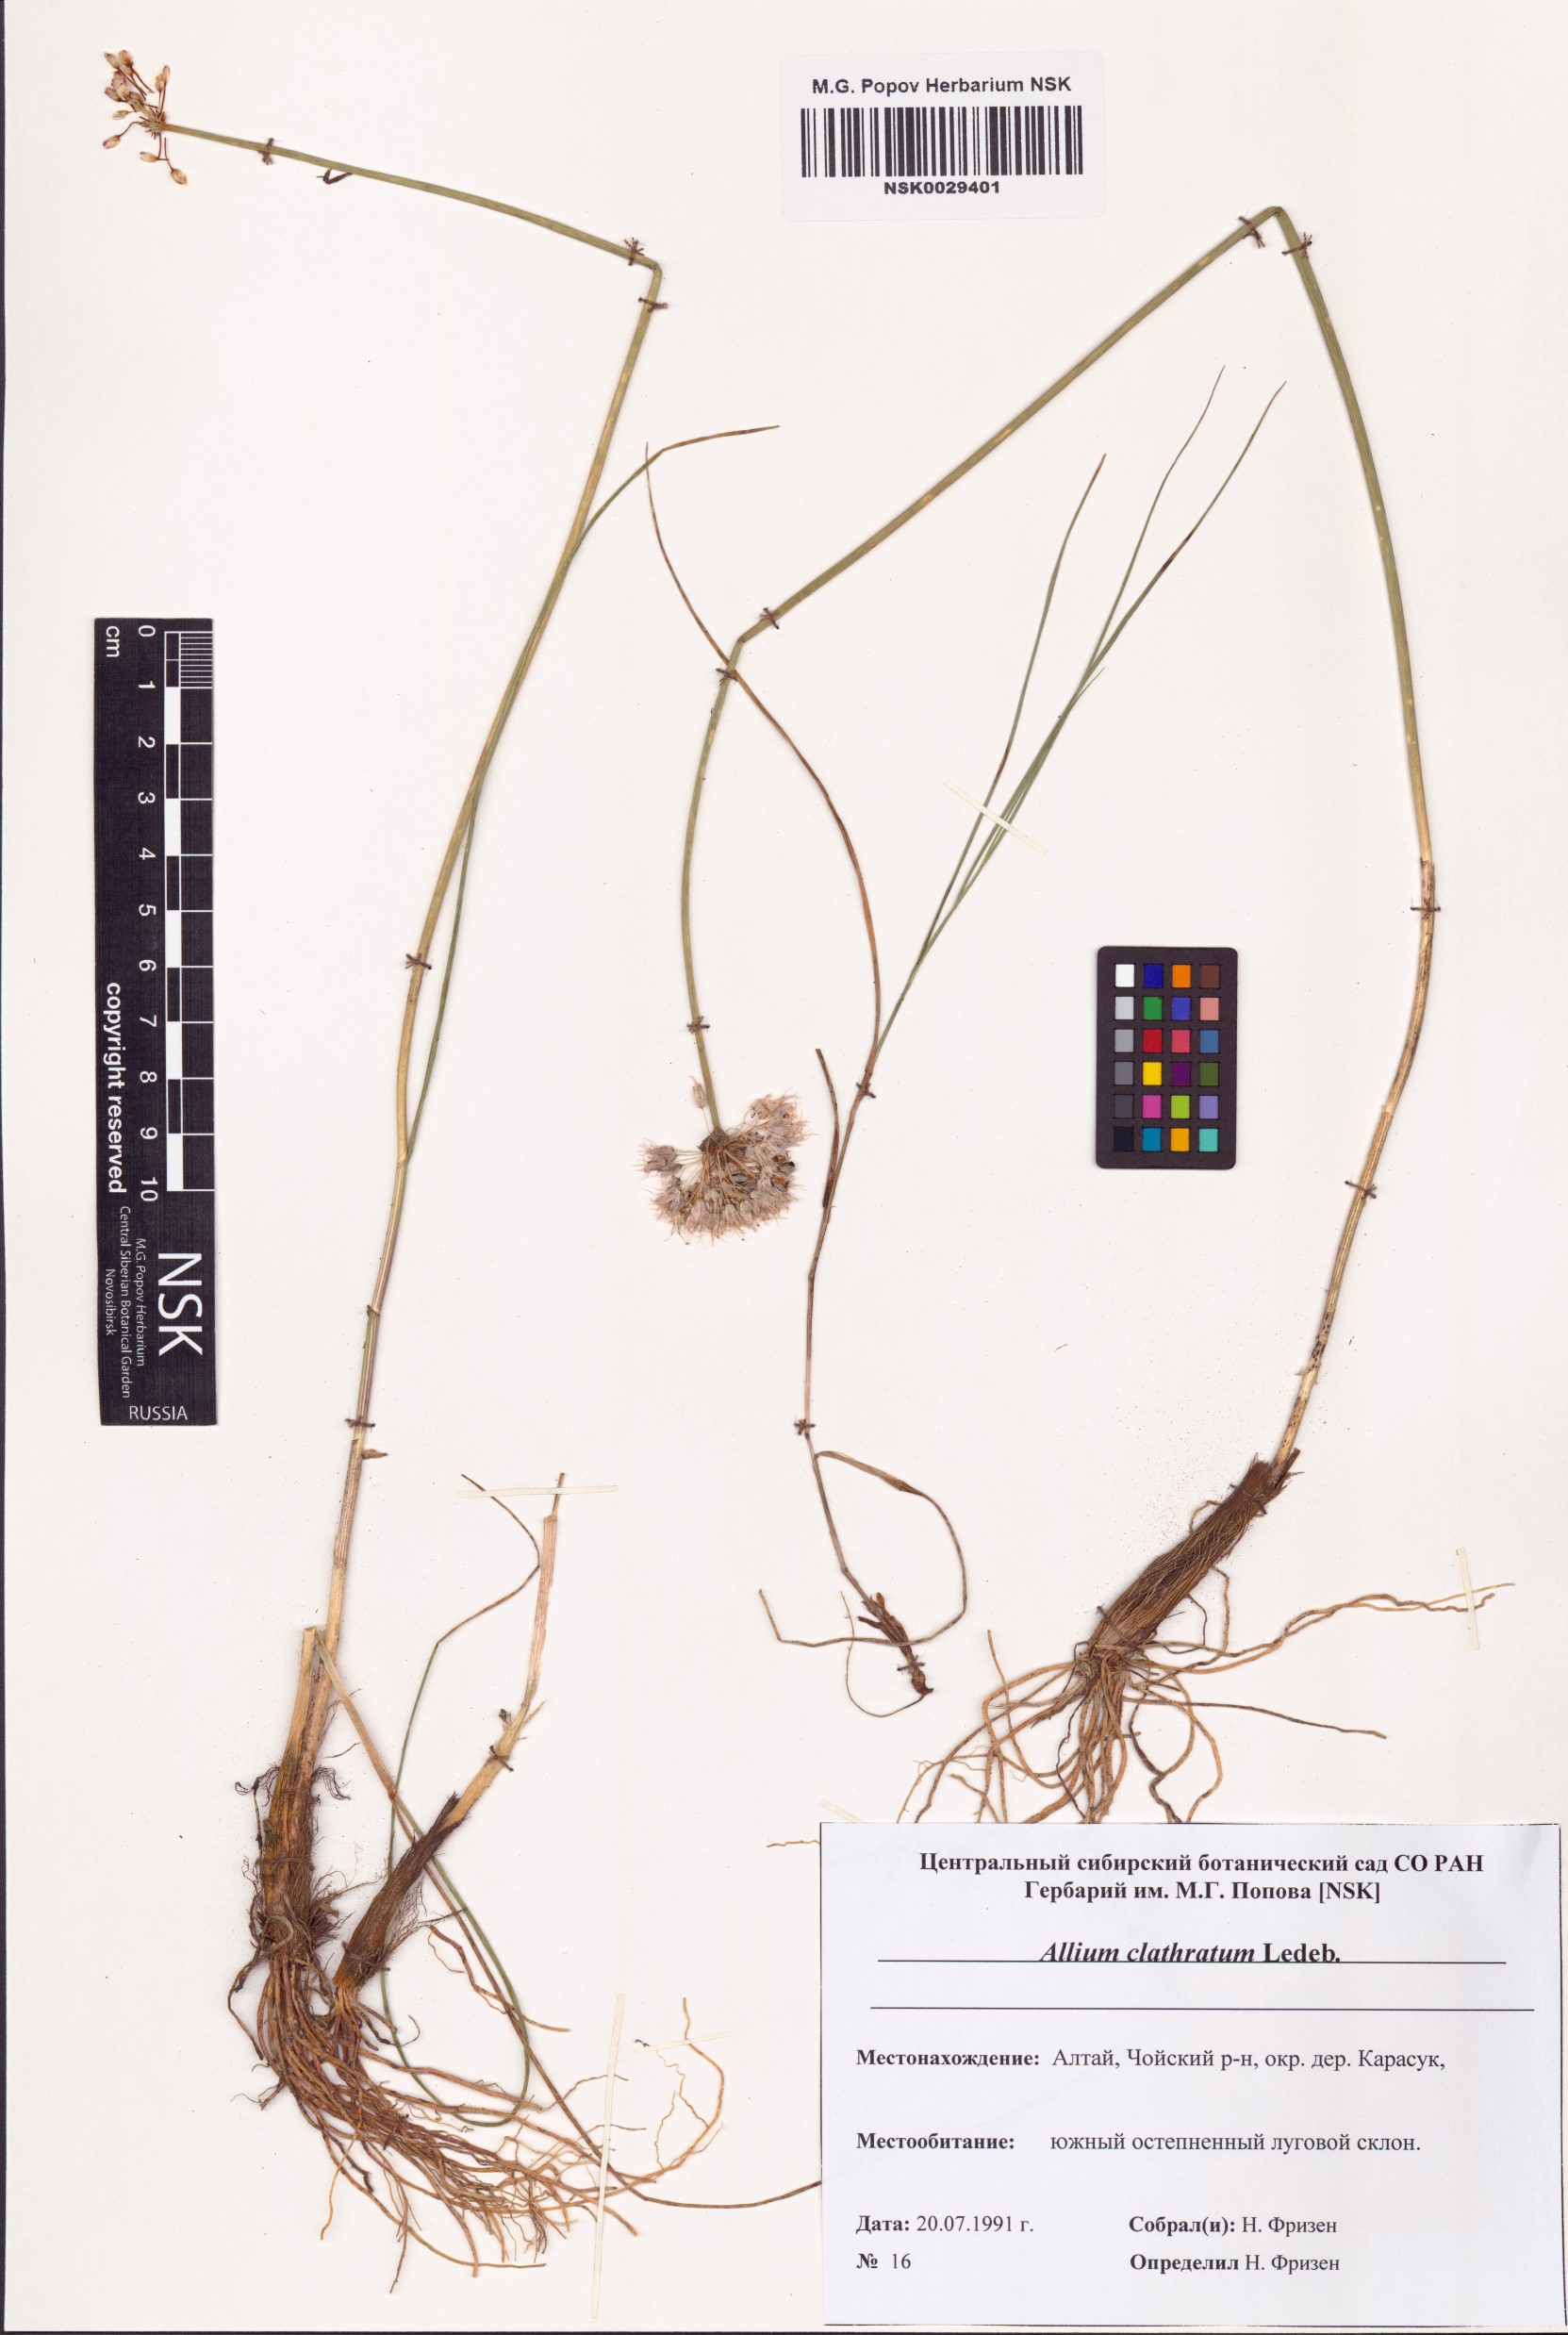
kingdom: Plantae
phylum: Tracheophyta
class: Liliopsida
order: Asparagales
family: Amaryllidaceae
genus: Allium
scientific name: Allium clathratum
